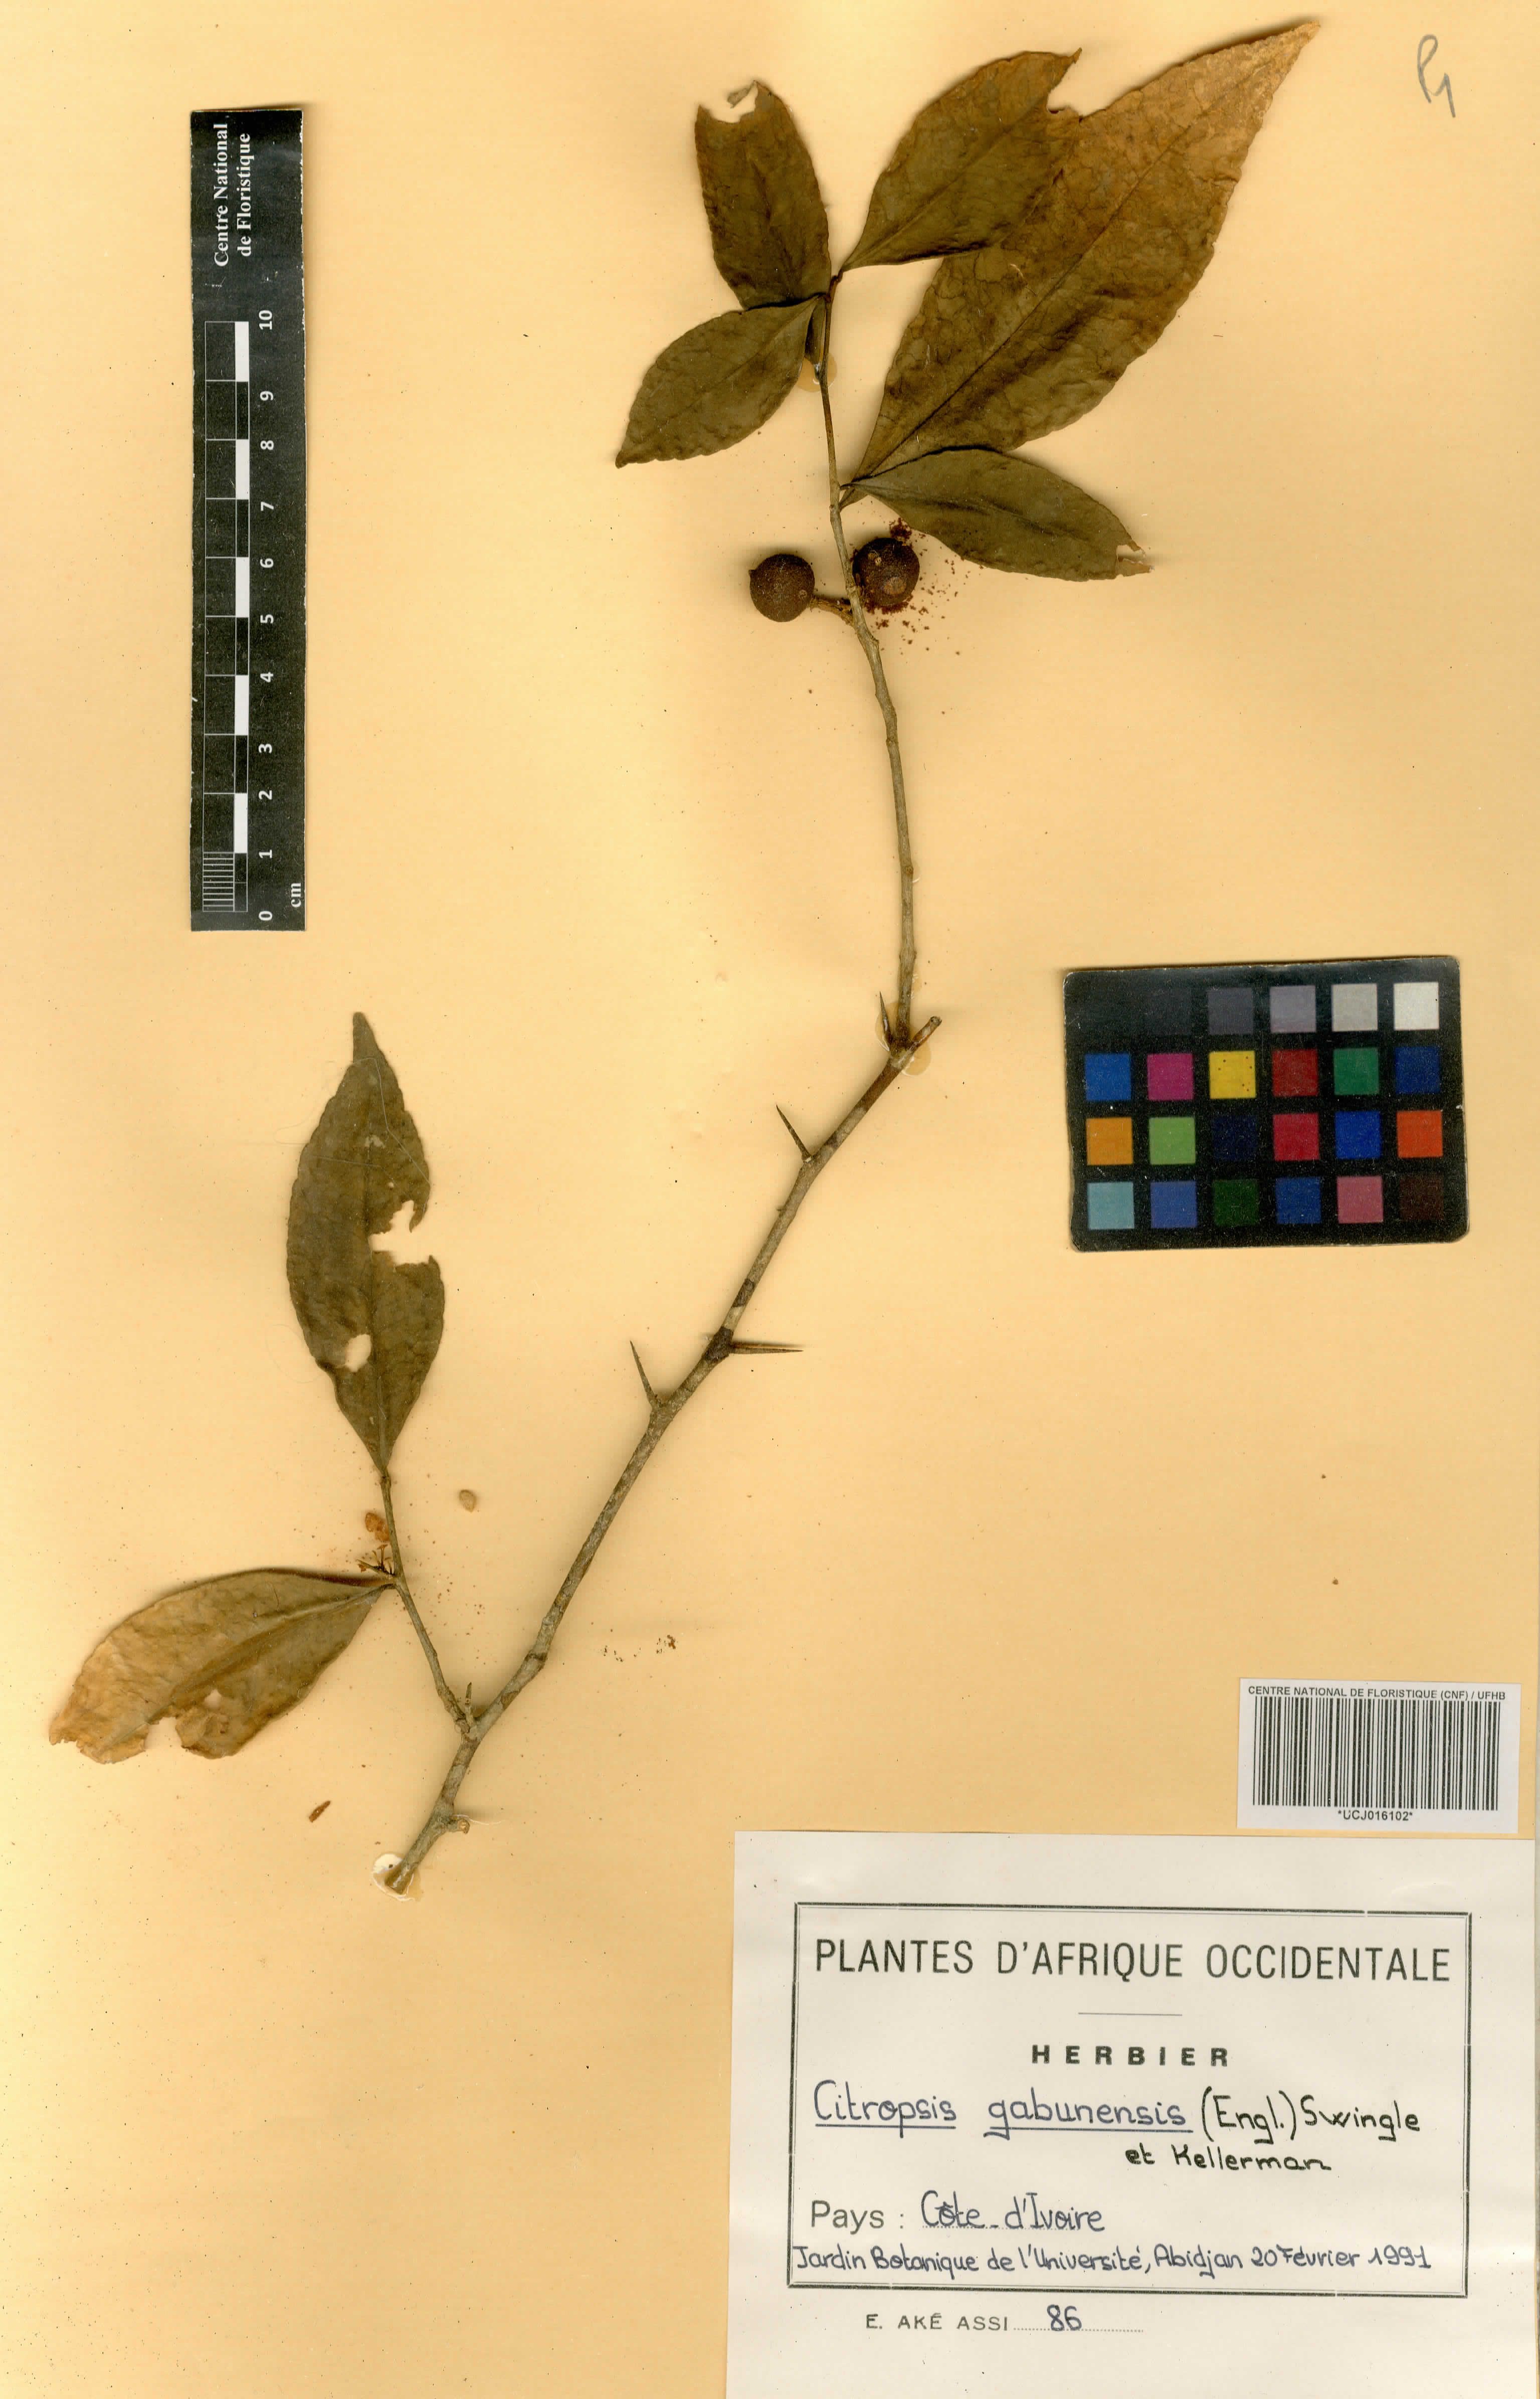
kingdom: Plantae
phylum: Tracheophyta
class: Magnoliopsida
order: Sapindales
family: Rutaceae
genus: Citropsis
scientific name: Citropsis gabunensis
